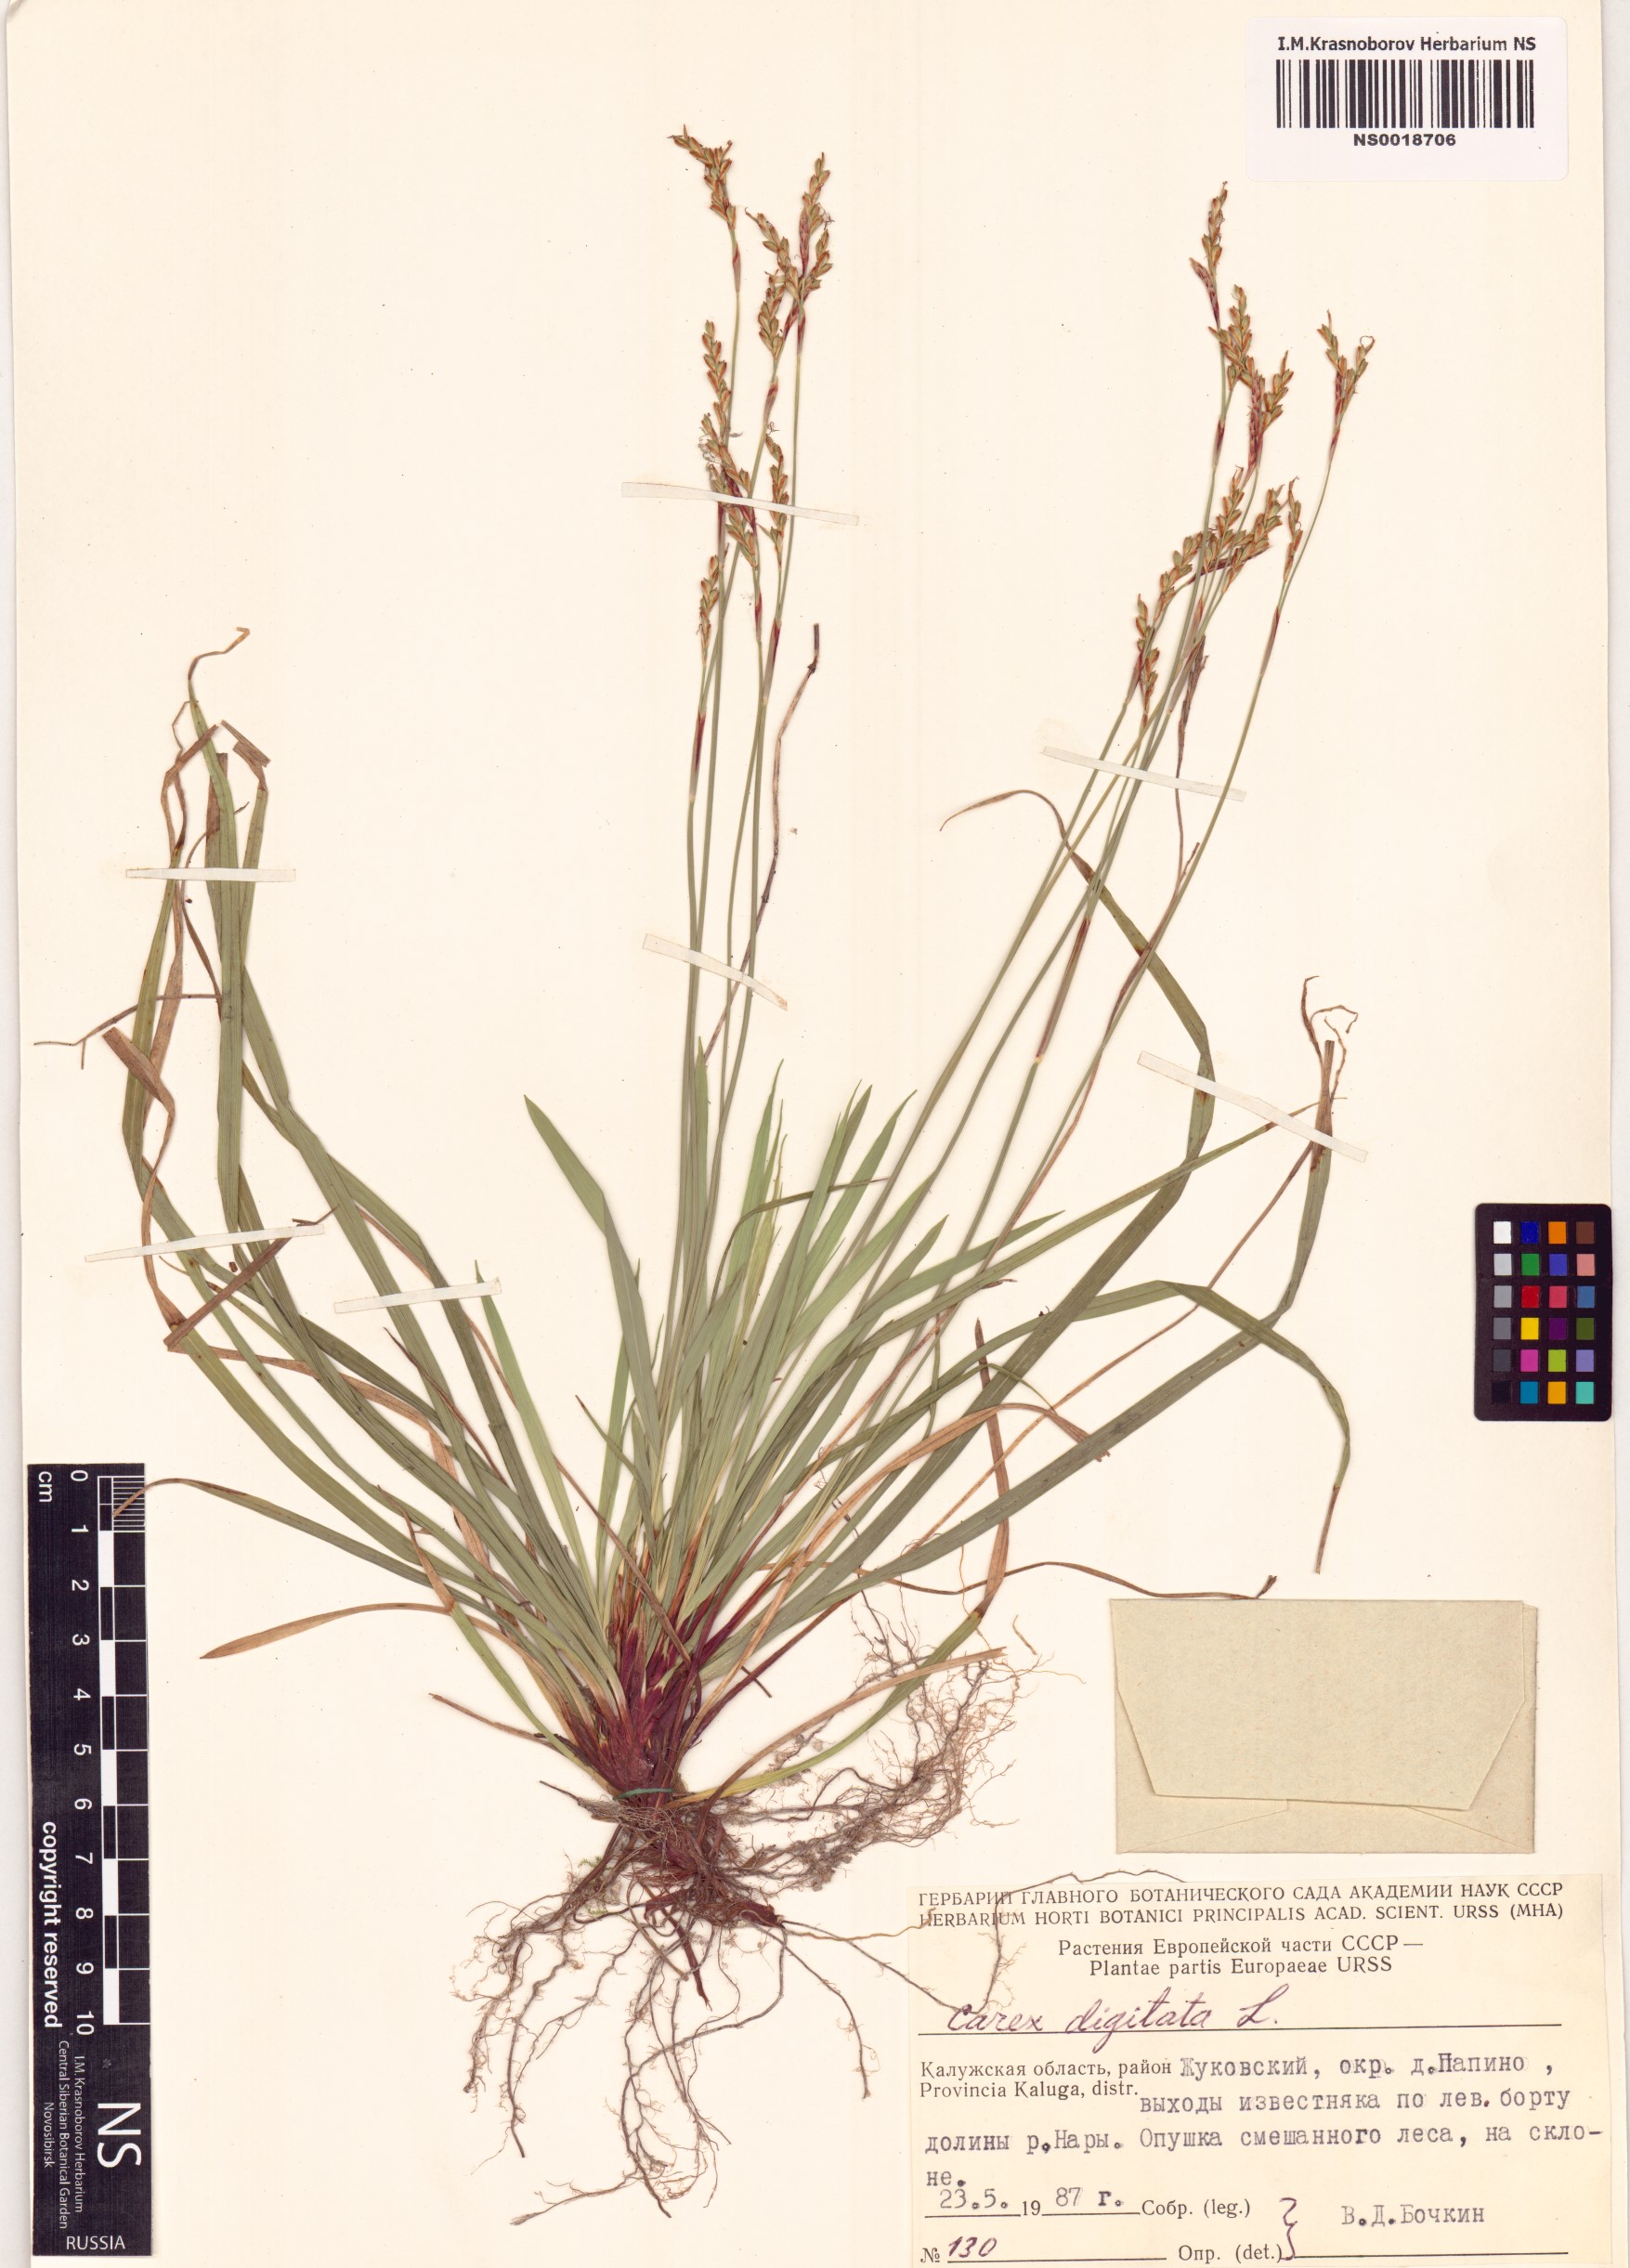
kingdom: Plantae
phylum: Tracheophyta
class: Liliopsida
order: Poales
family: Cyperaceae
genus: Carex
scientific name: Carex digitata
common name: Fingered sedge
